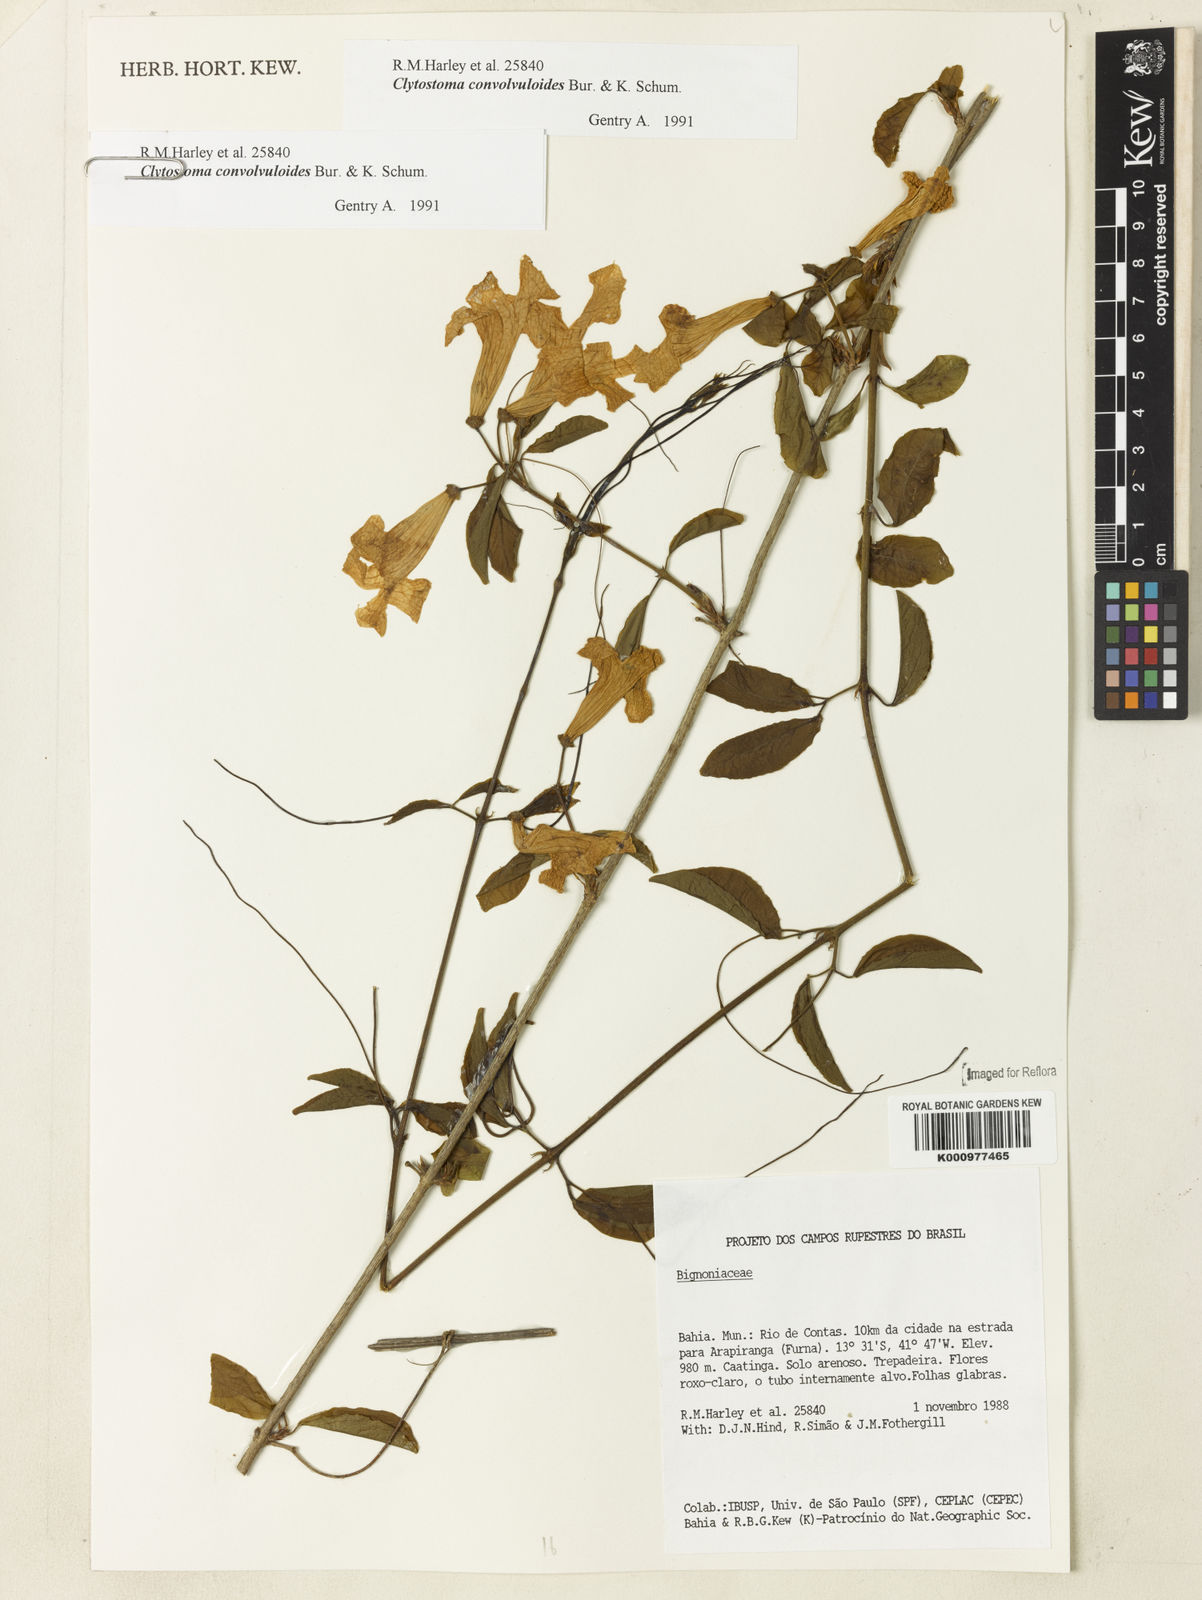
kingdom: Plantae
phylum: Tracheophyta
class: Magnoliopsida
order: Lamiales
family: Bignoniaceae
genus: Bignonia
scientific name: Bignonia convolvuloides
